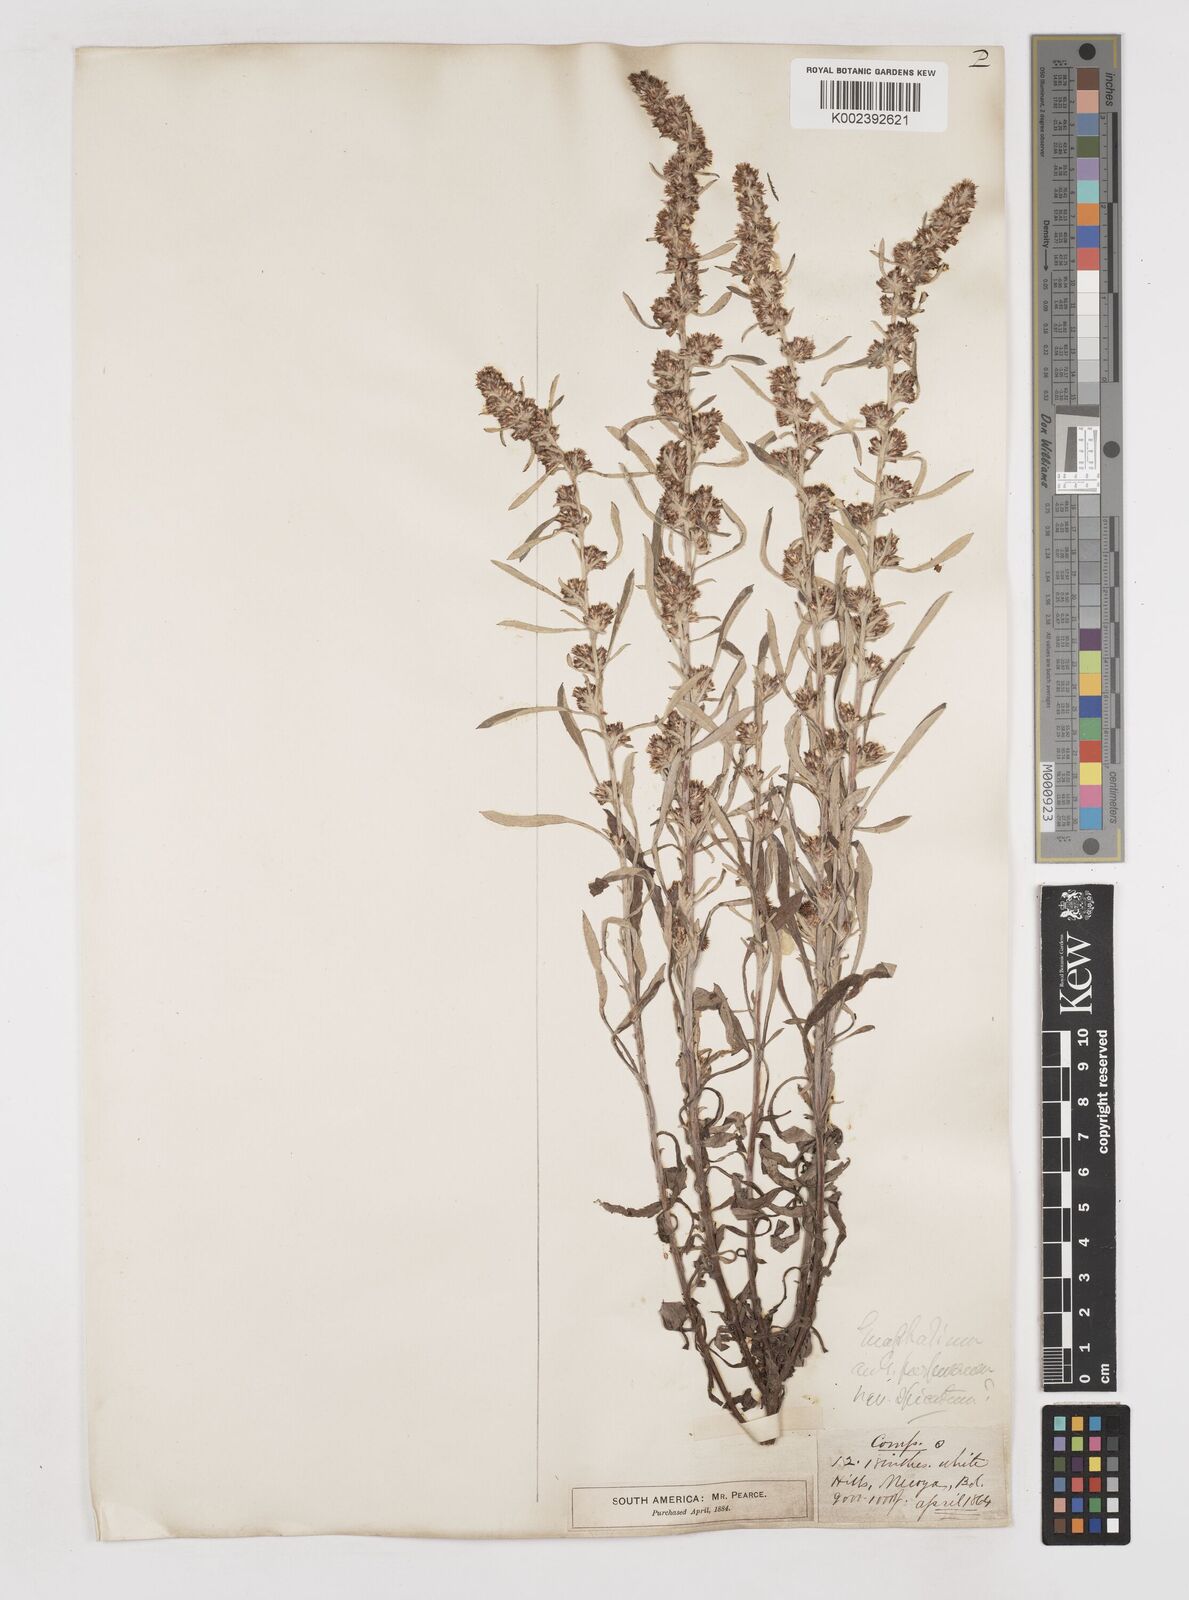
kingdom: Plantae
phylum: Tracheophyta
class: Magnoliopsida
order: Asterales
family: Asteraceae
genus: Gamochaeta
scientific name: Gamochaeta americana
